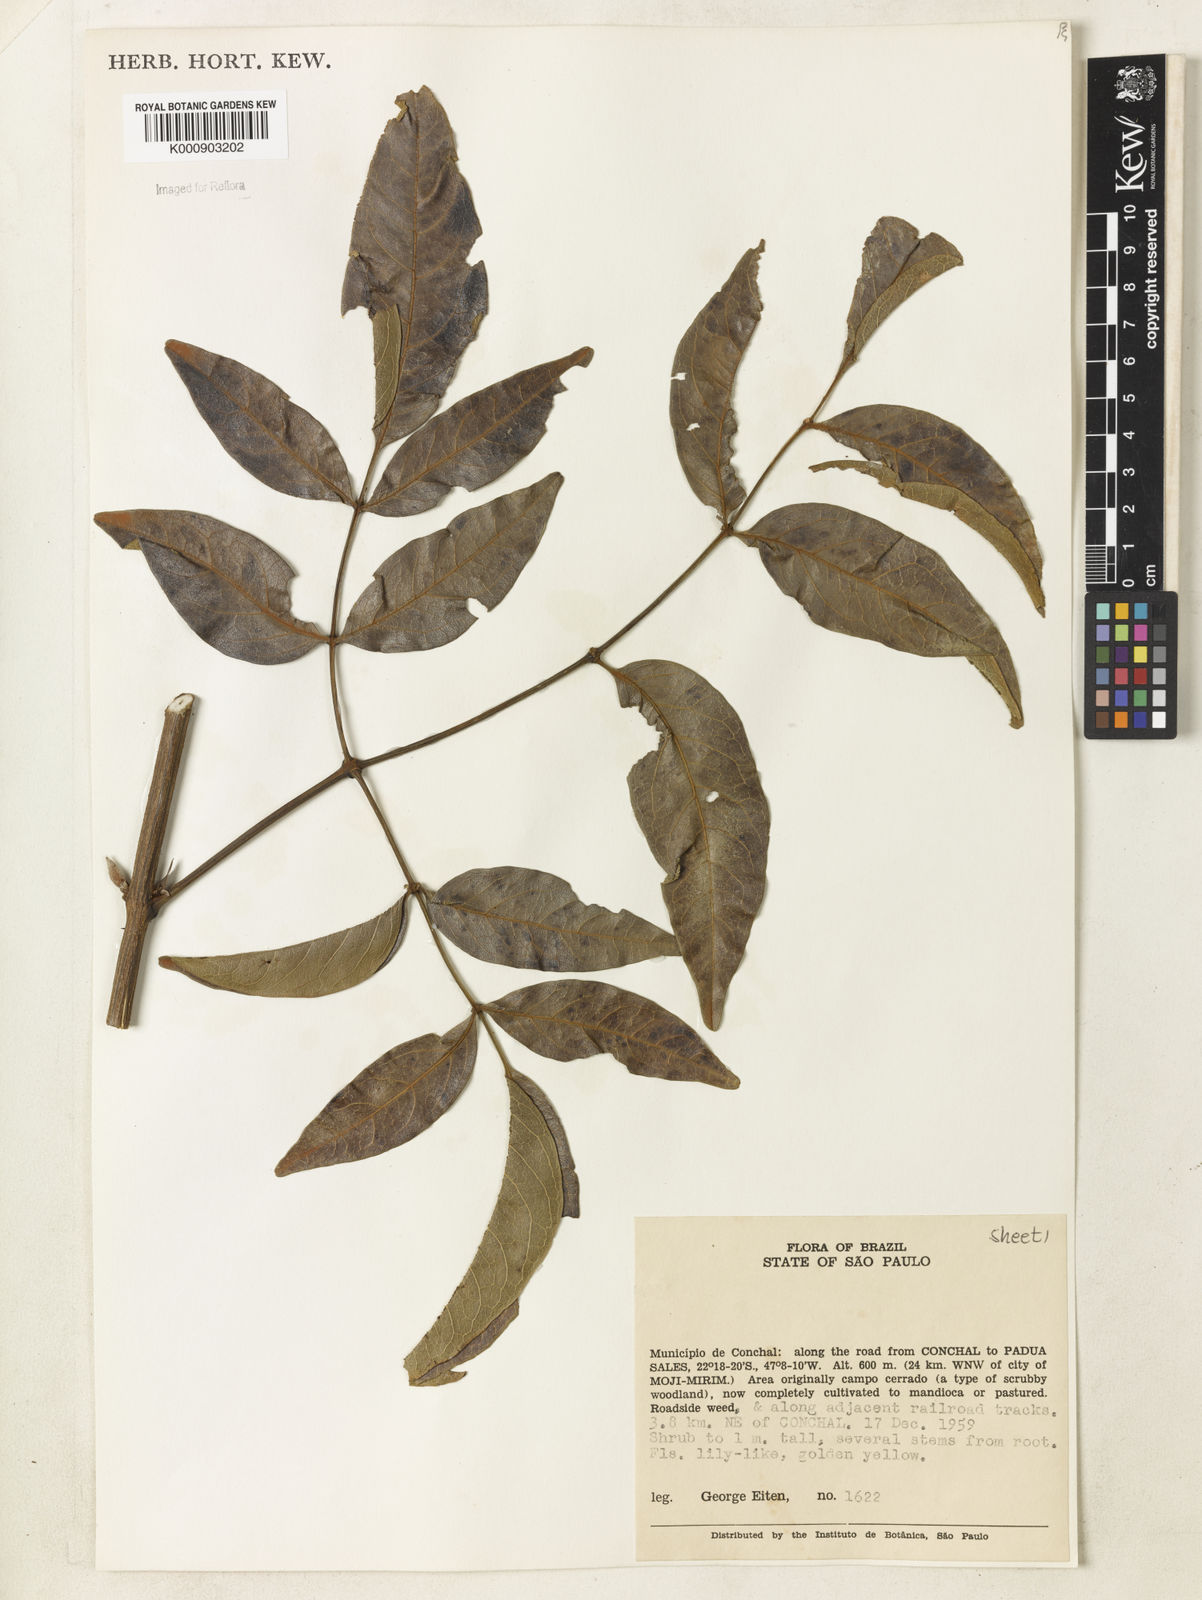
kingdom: Plantae
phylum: Tracheophyta
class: Magnoliopsida
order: Lamiales
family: Bignoniaceae
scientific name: Bignoniaceae
